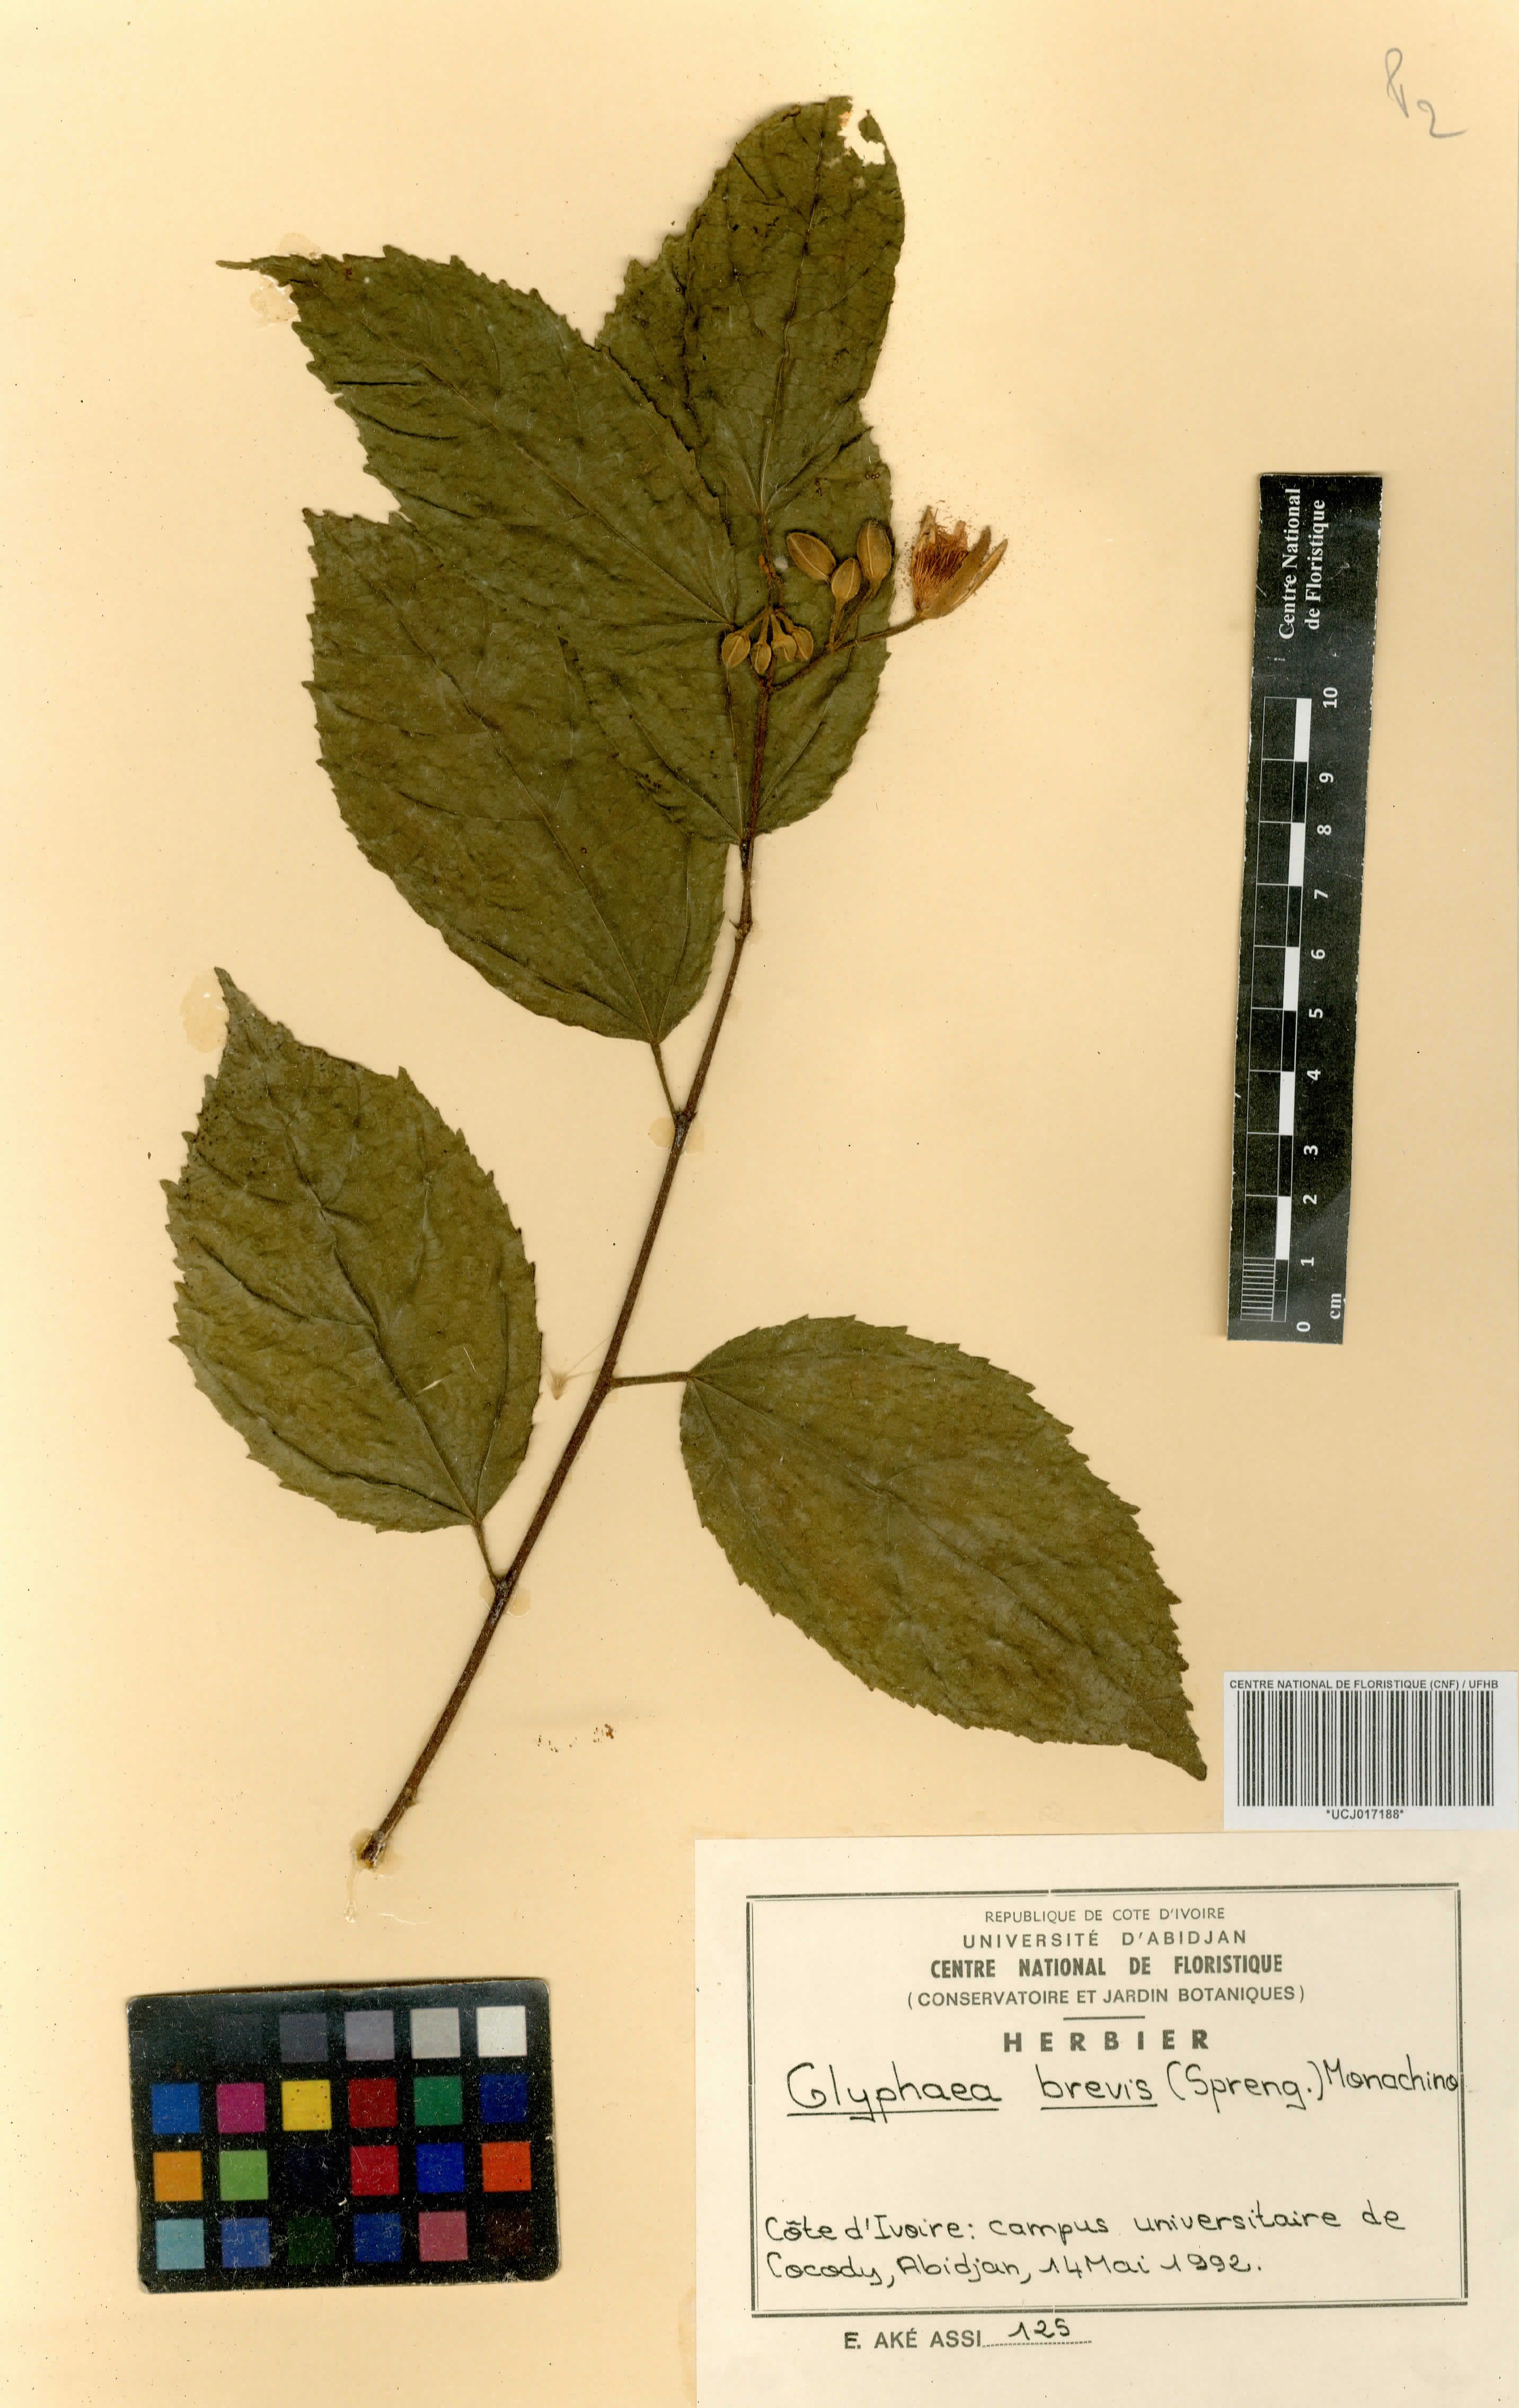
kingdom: Plantae
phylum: Tracheophyta
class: Magnoliopsida
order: Malvales
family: Malvaceae
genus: Glyphaea
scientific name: Glyphaea brevis
